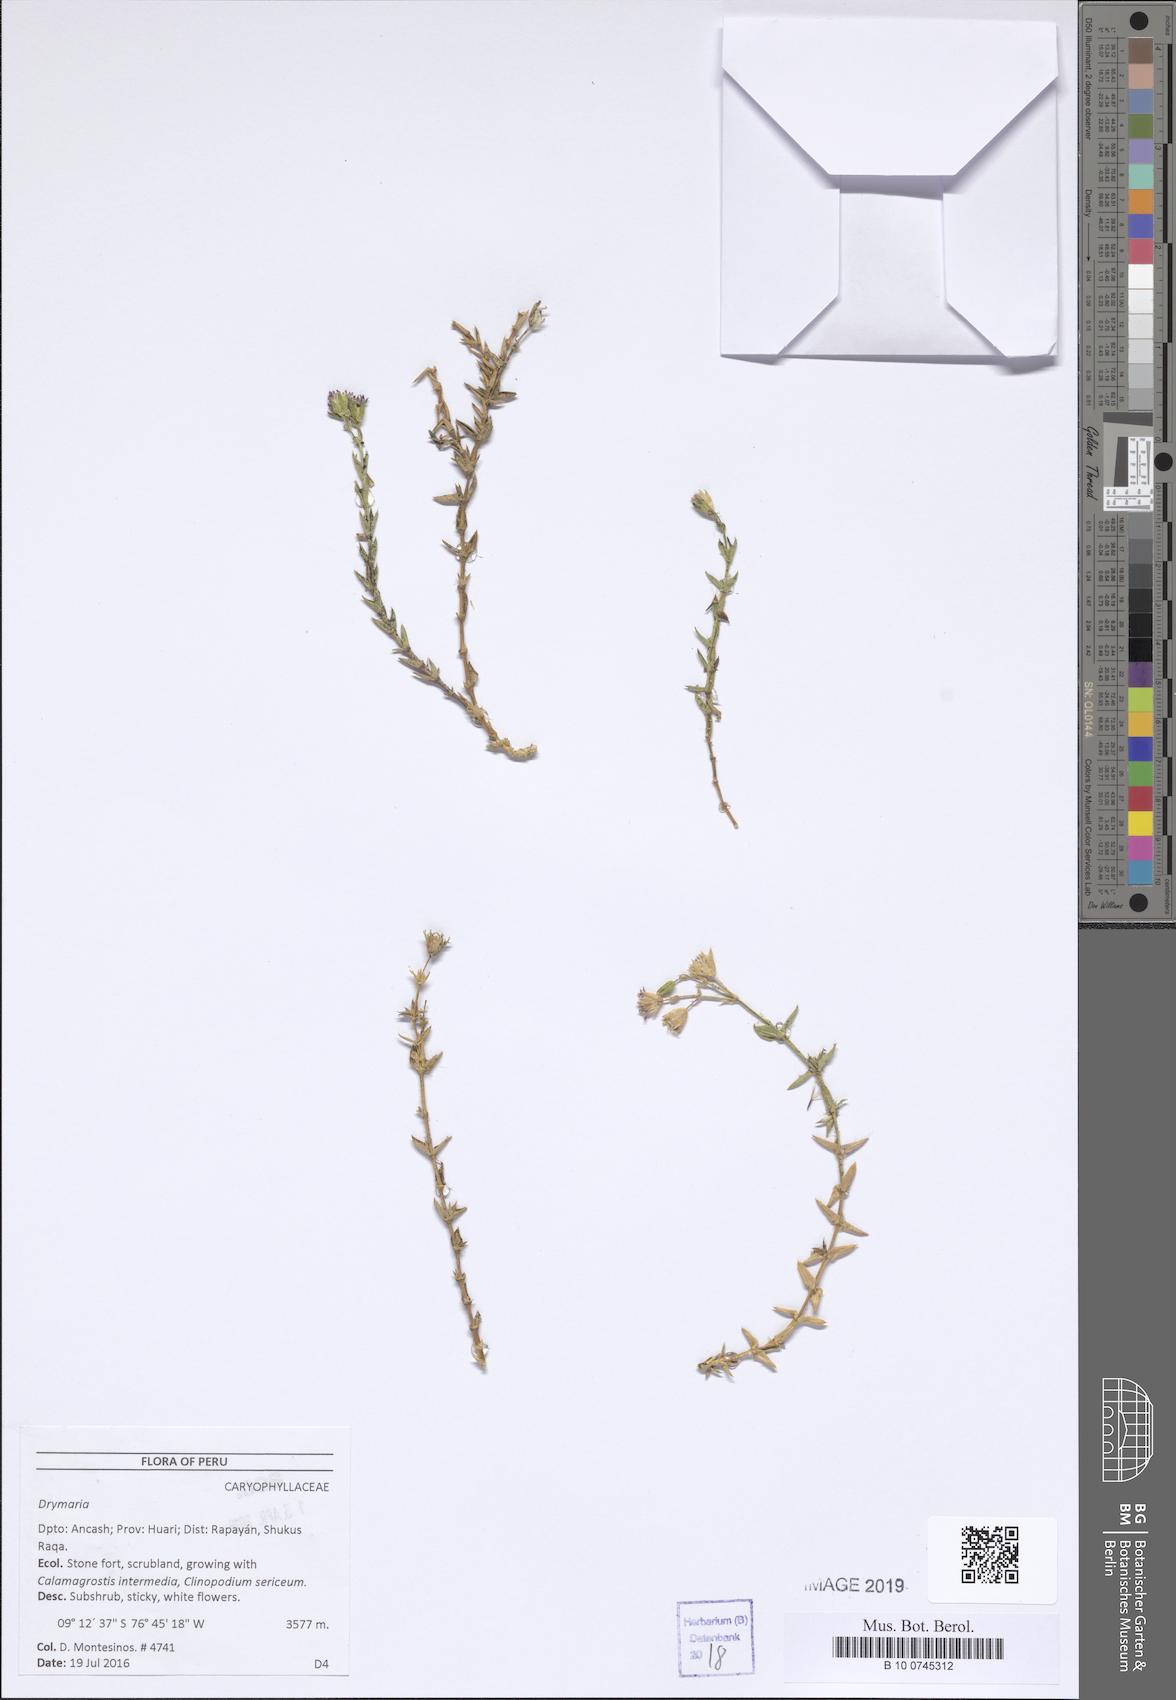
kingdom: Plantae
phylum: Tracheophyta
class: Magnoliopsida
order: Caryophyllales
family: Caryophyllaceae
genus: Drymaria
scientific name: Drymaria
